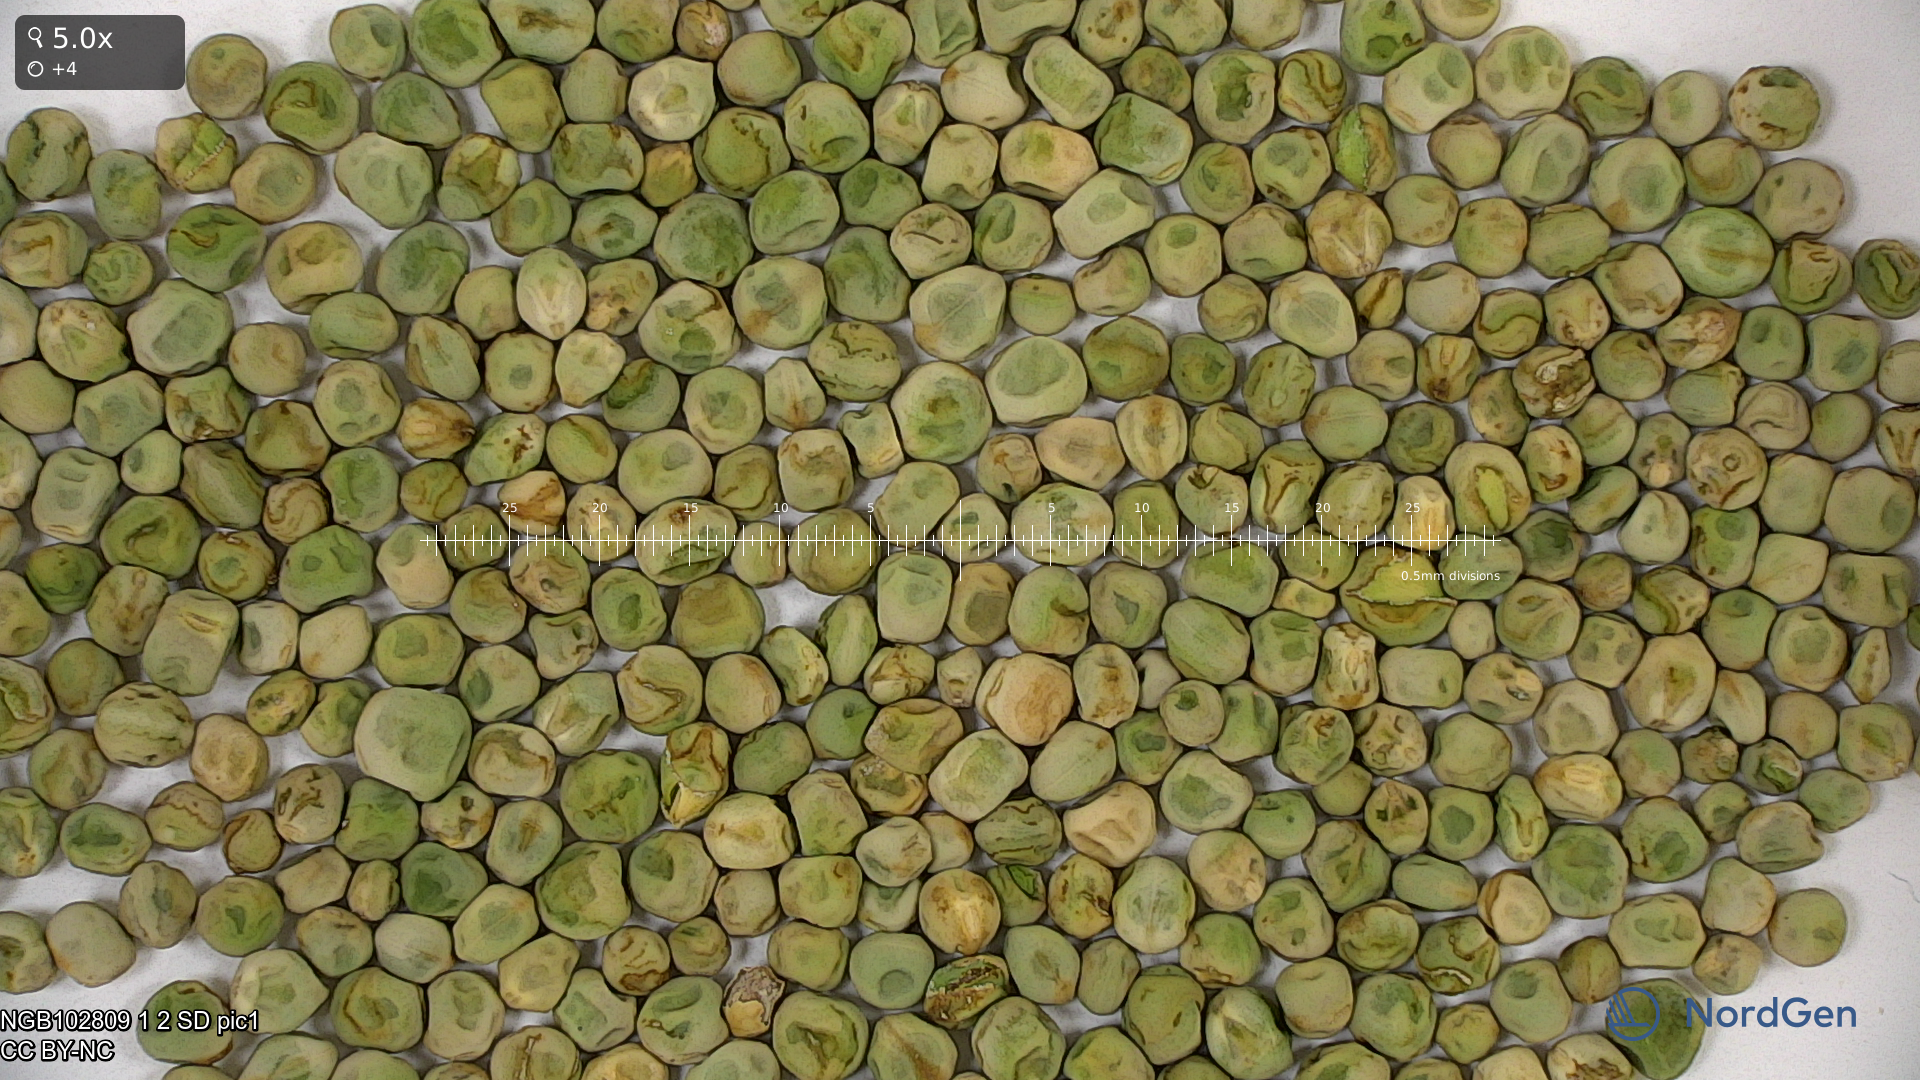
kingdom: Plantae
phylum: Tracheophyta
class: Magnoliopsida
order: Fabales
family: Fabaceae
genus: Lathyrus
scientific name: Lathyrus oleraceus
